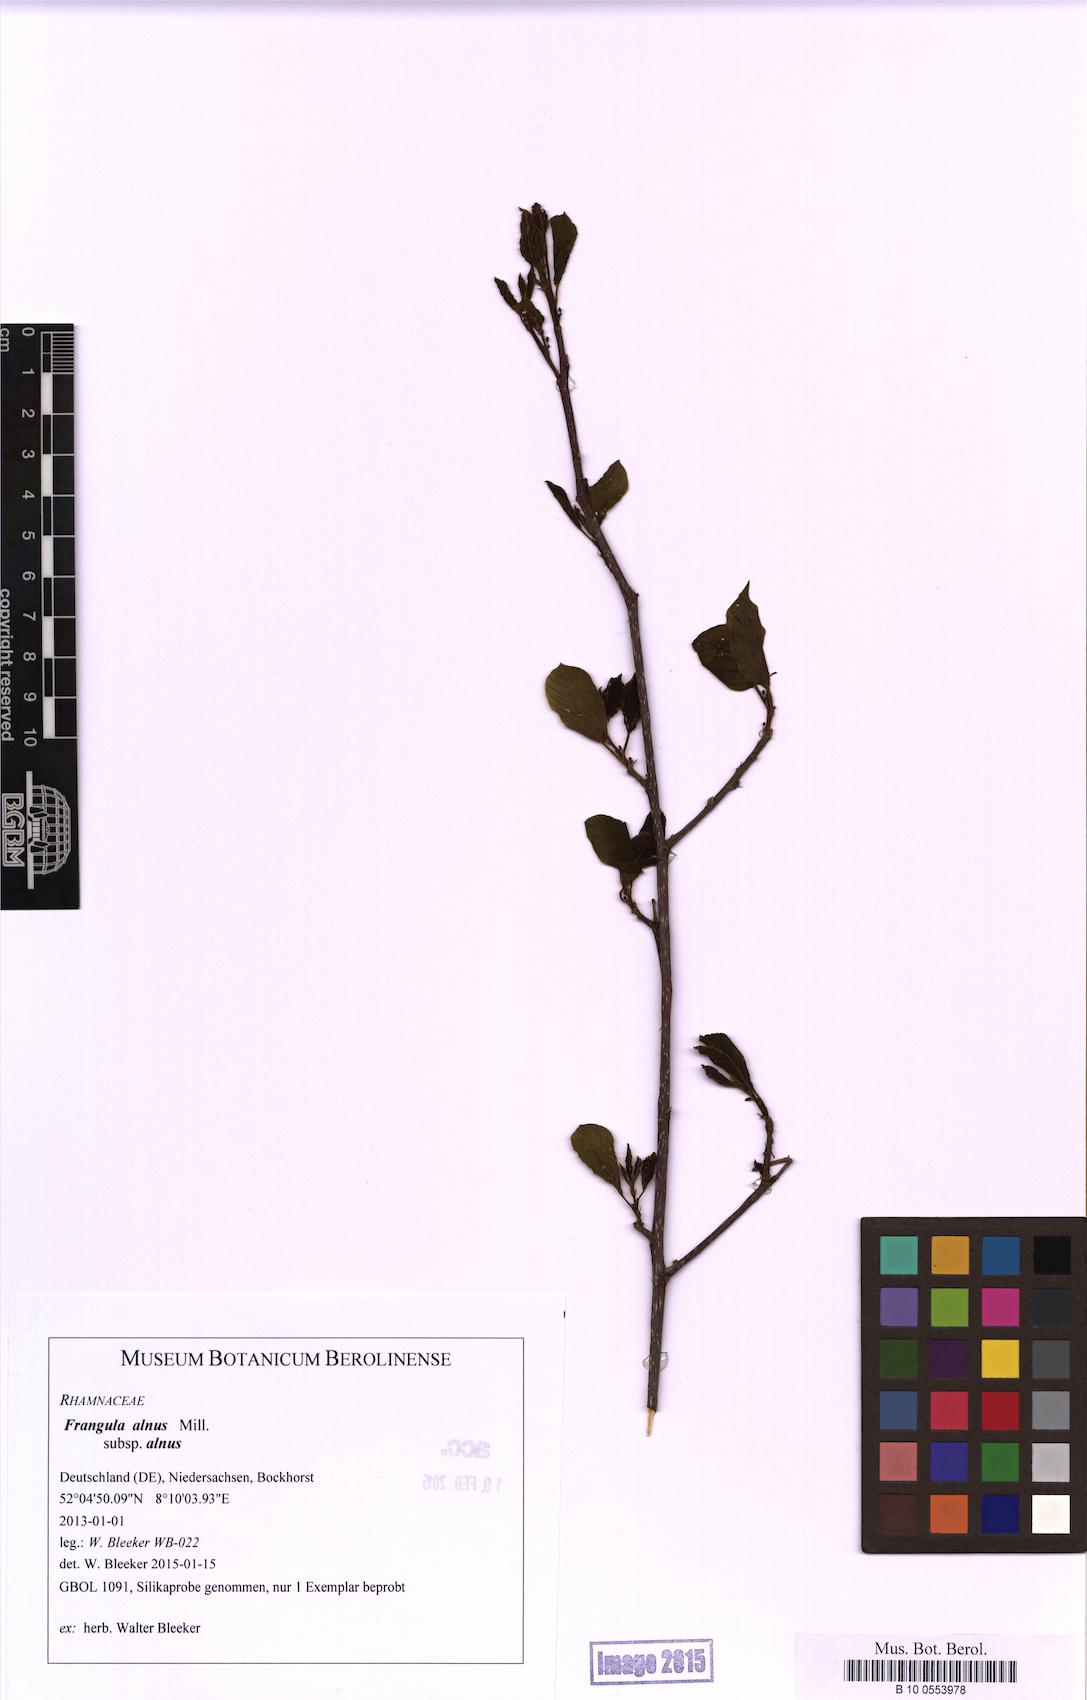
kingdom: Plantae
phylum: Tracheophyta
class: Magnoliopsida
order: Rosales
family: Rhamnaceae
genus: Frangula
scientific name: Frangula alnus
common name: Alder buckthorn
